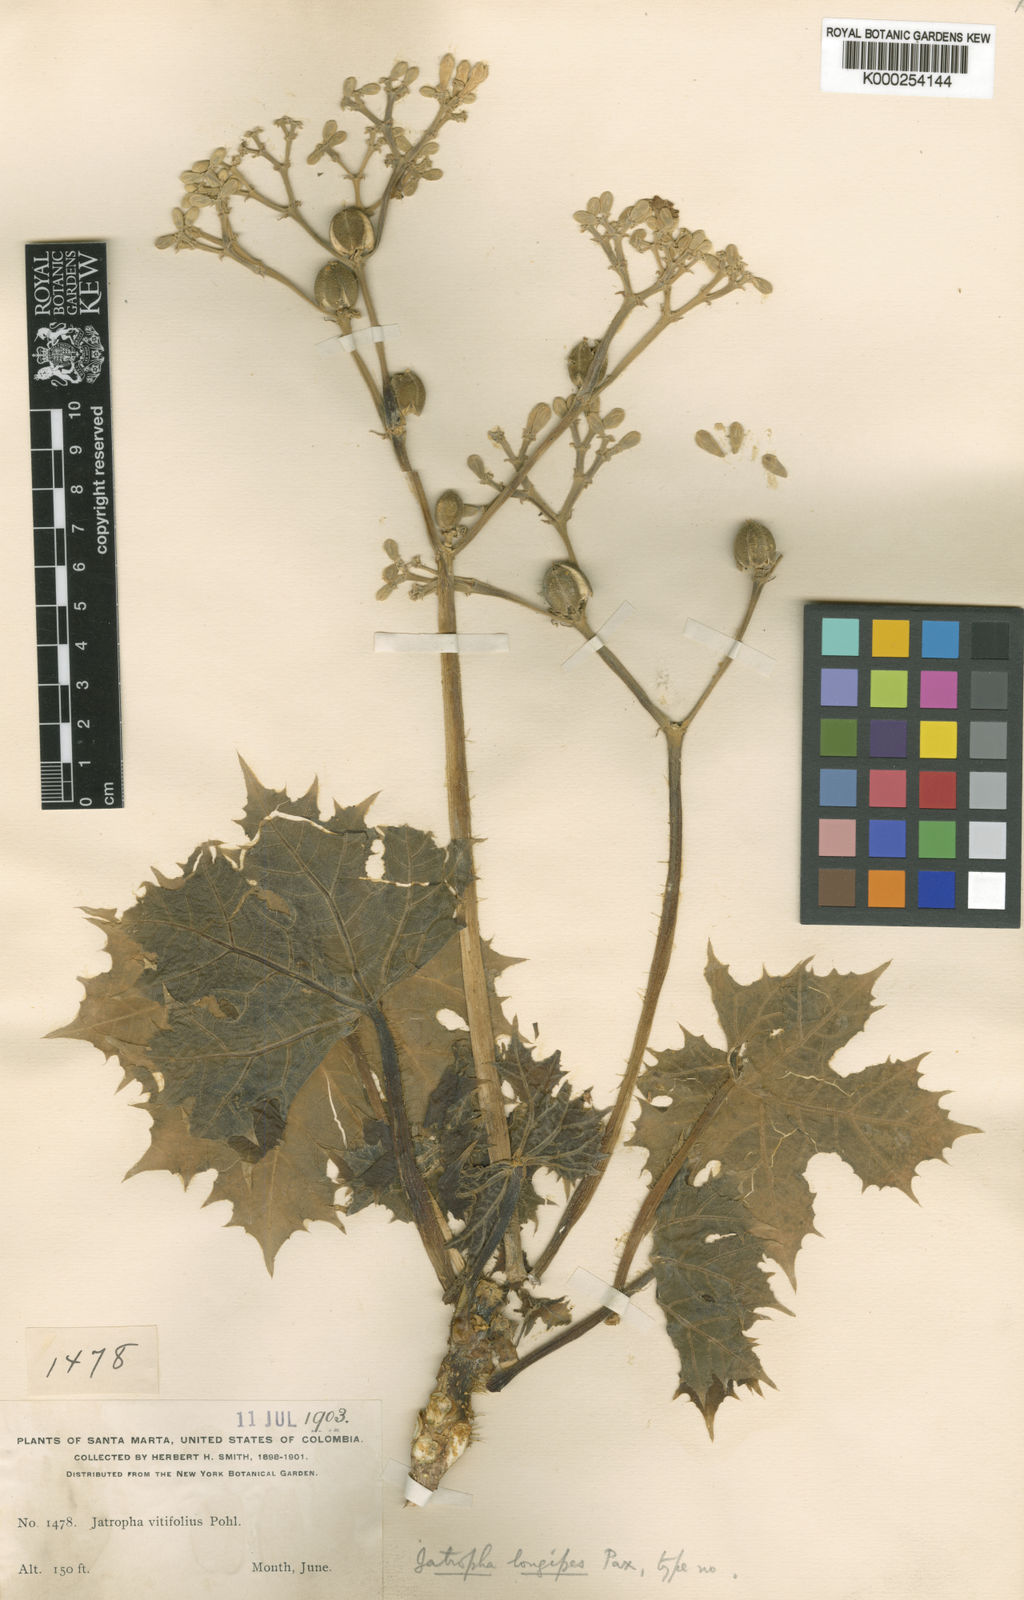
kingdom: Plantae
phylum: Tracheophyta
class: Magnoliopsida
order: Malpighiales
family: Euphorbiaceae
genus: Cnidoscolus
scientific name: Cnidoscolus longipes
